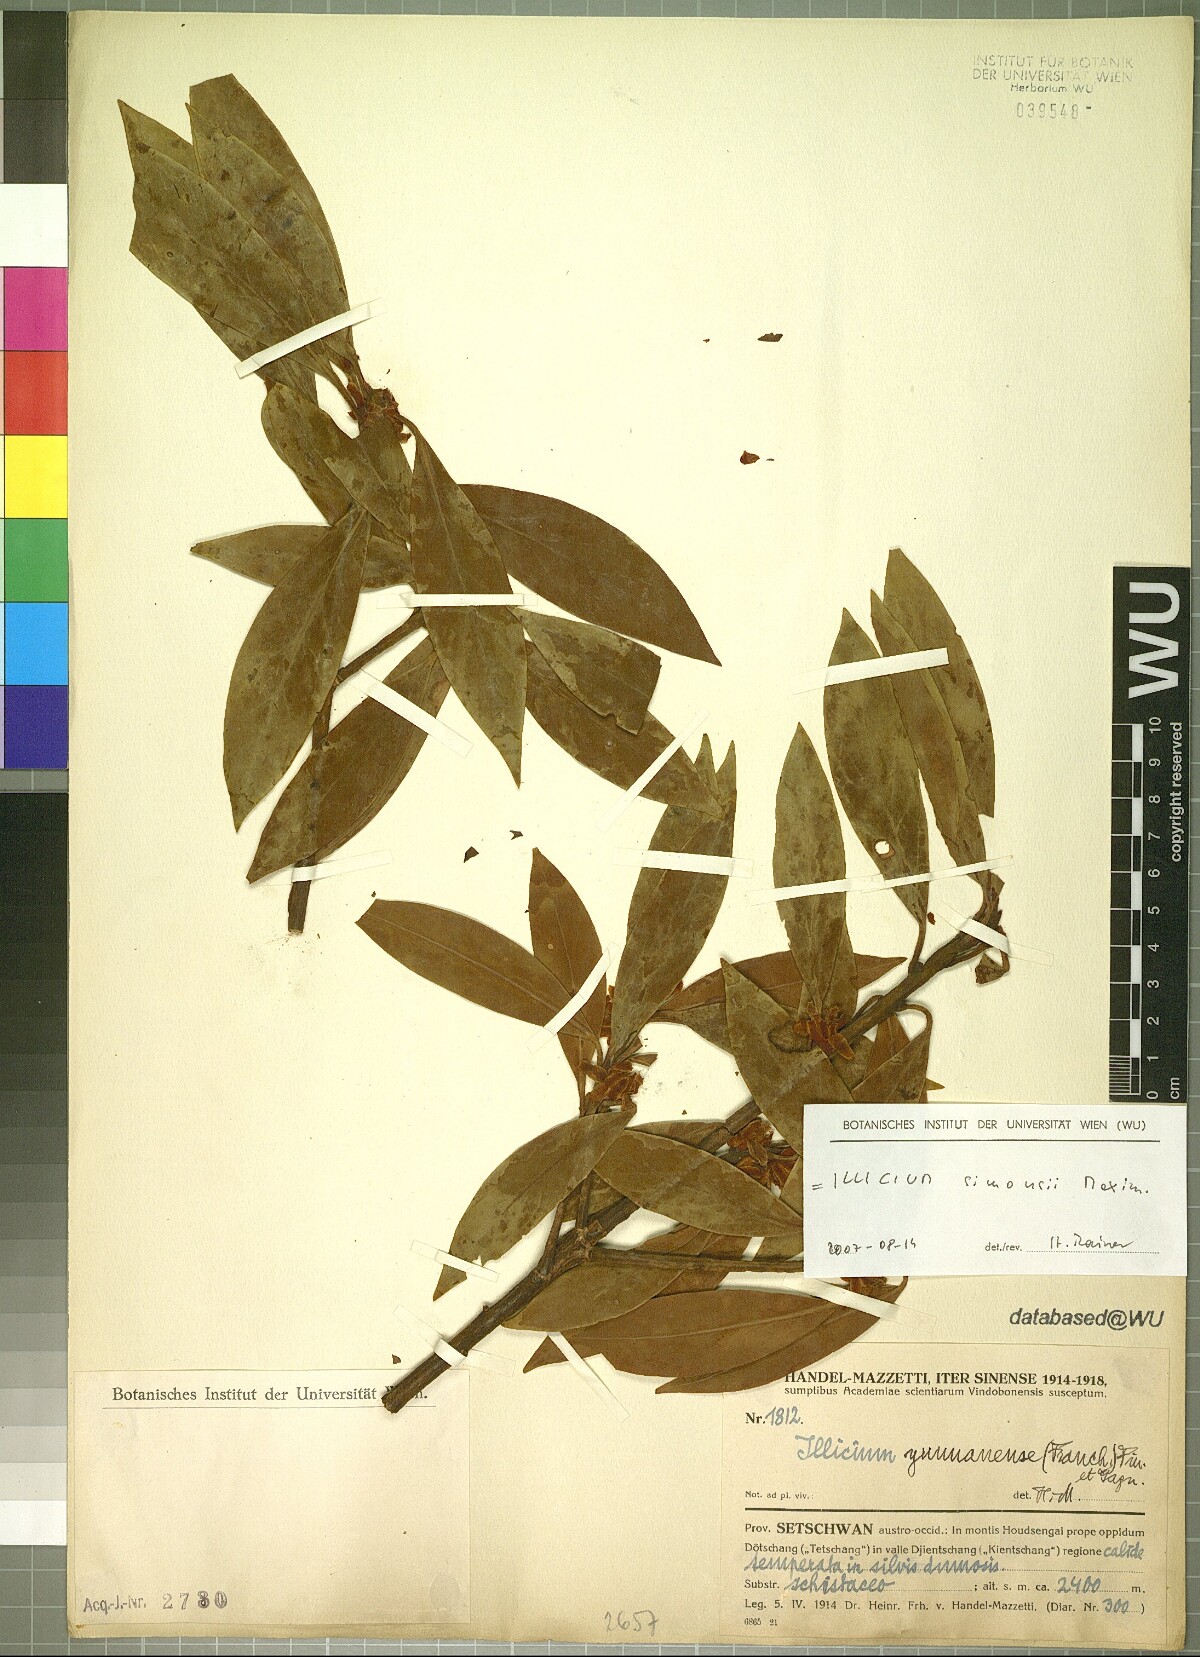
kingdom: Plantae
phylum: Tracheophyta
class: Magnoliopsida
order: Austrobaileyales
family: Schisandraceae
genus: Illicium
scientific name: Illicium simonsii
